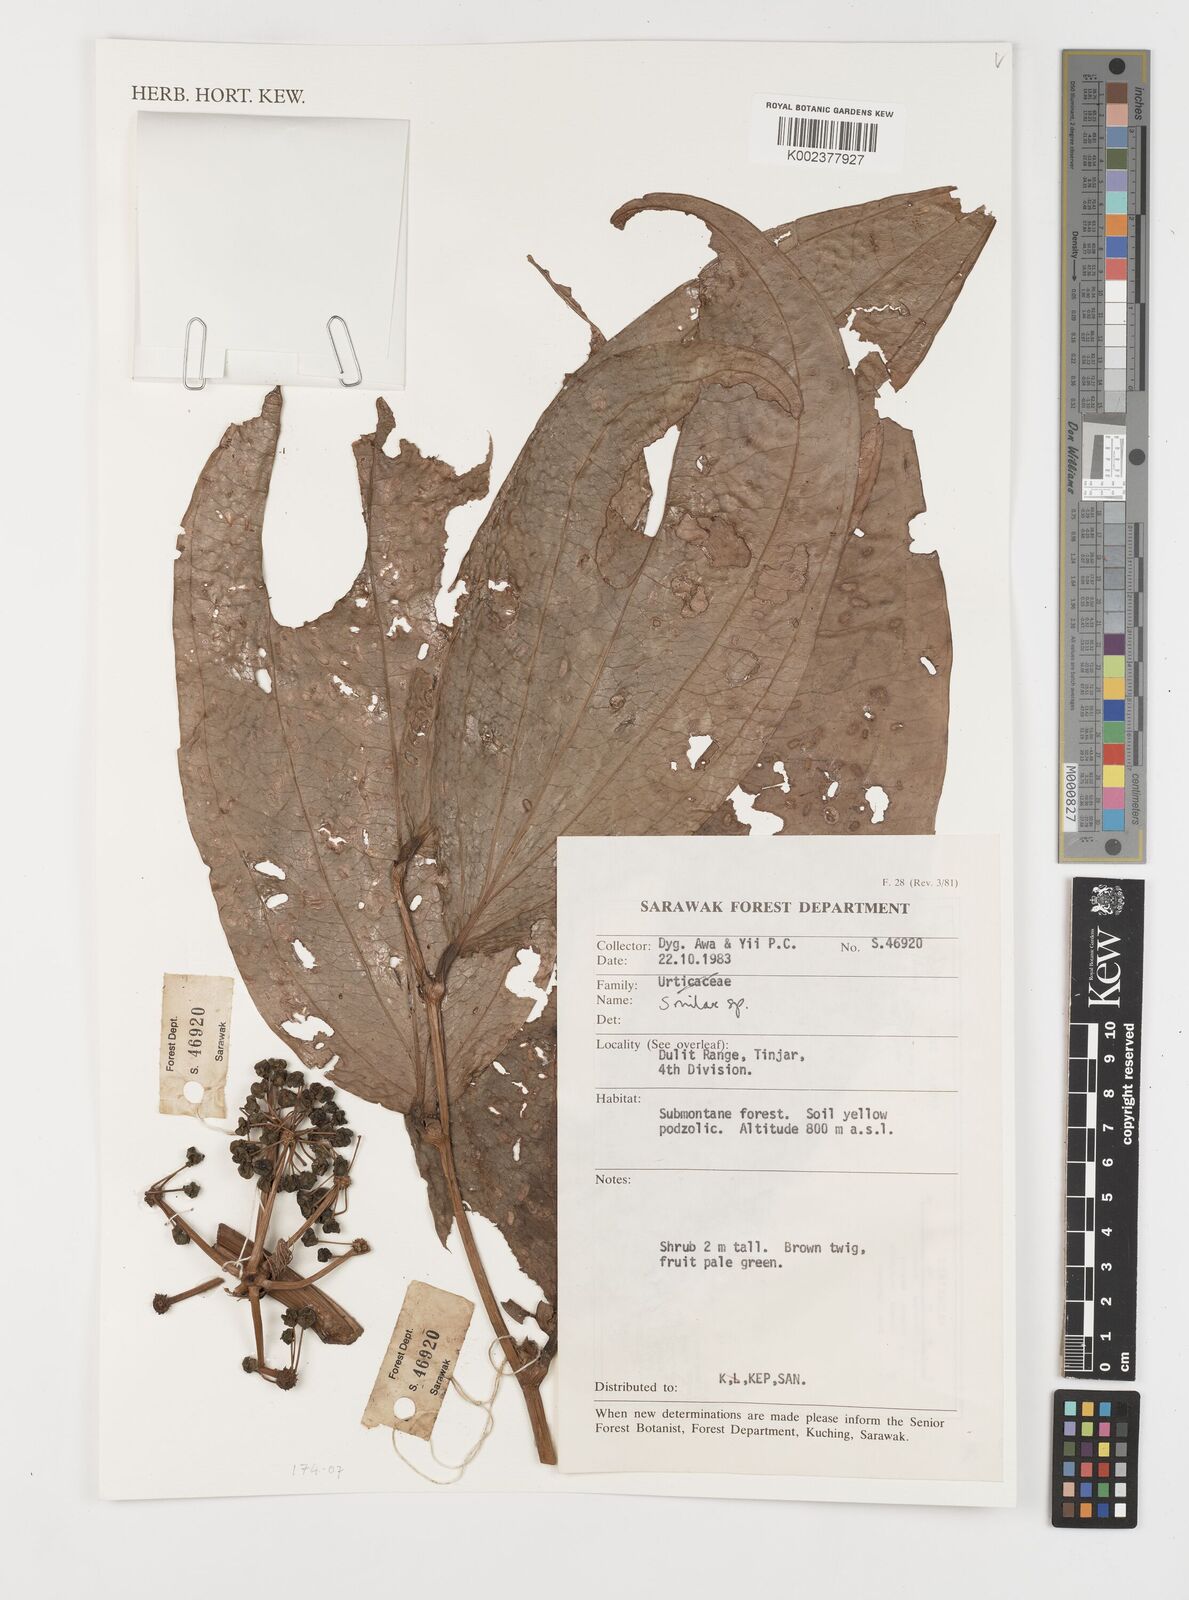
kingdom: Plantae
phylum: Tracheophyta
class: Liliopsida
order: Liliales
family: Smilacaceae
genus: Smilax
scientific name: Smilax
